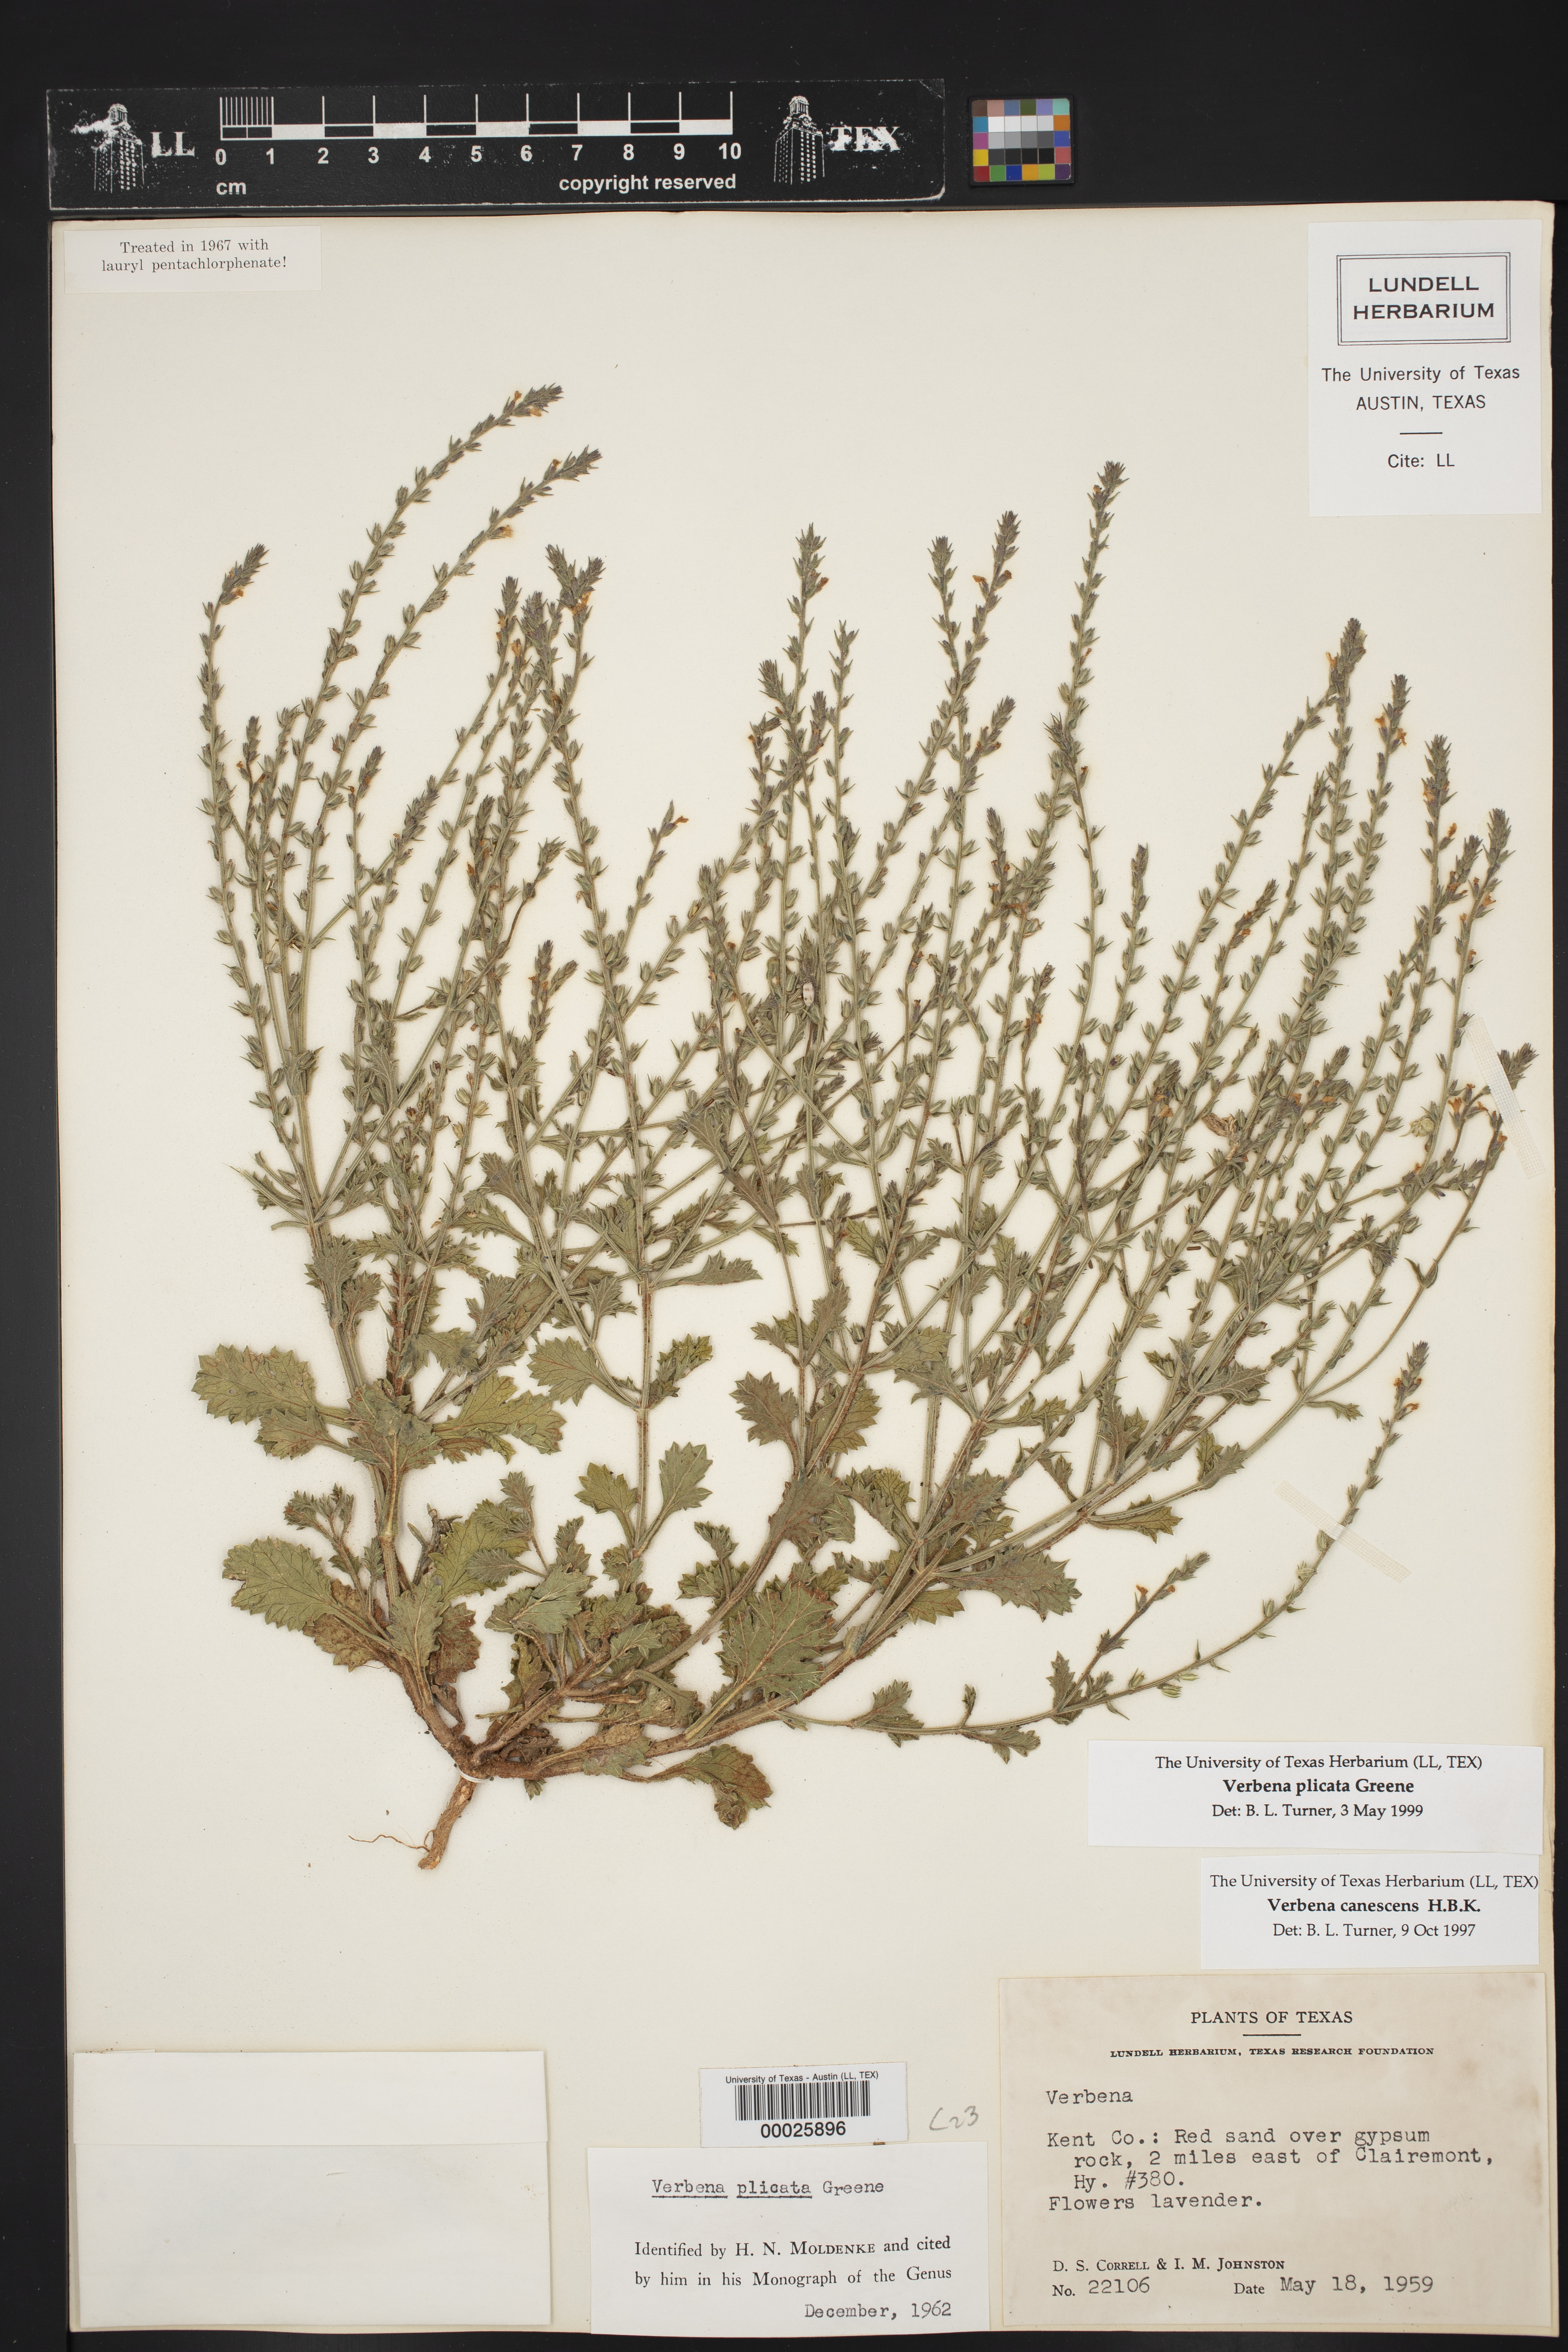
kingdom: Plantae
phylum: Tracheophyta
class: Magnoliopsida
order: Lamiales
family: Verbenaceae
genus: Verbena
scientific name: Verbena plicata
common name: Fan-leaf vervain
